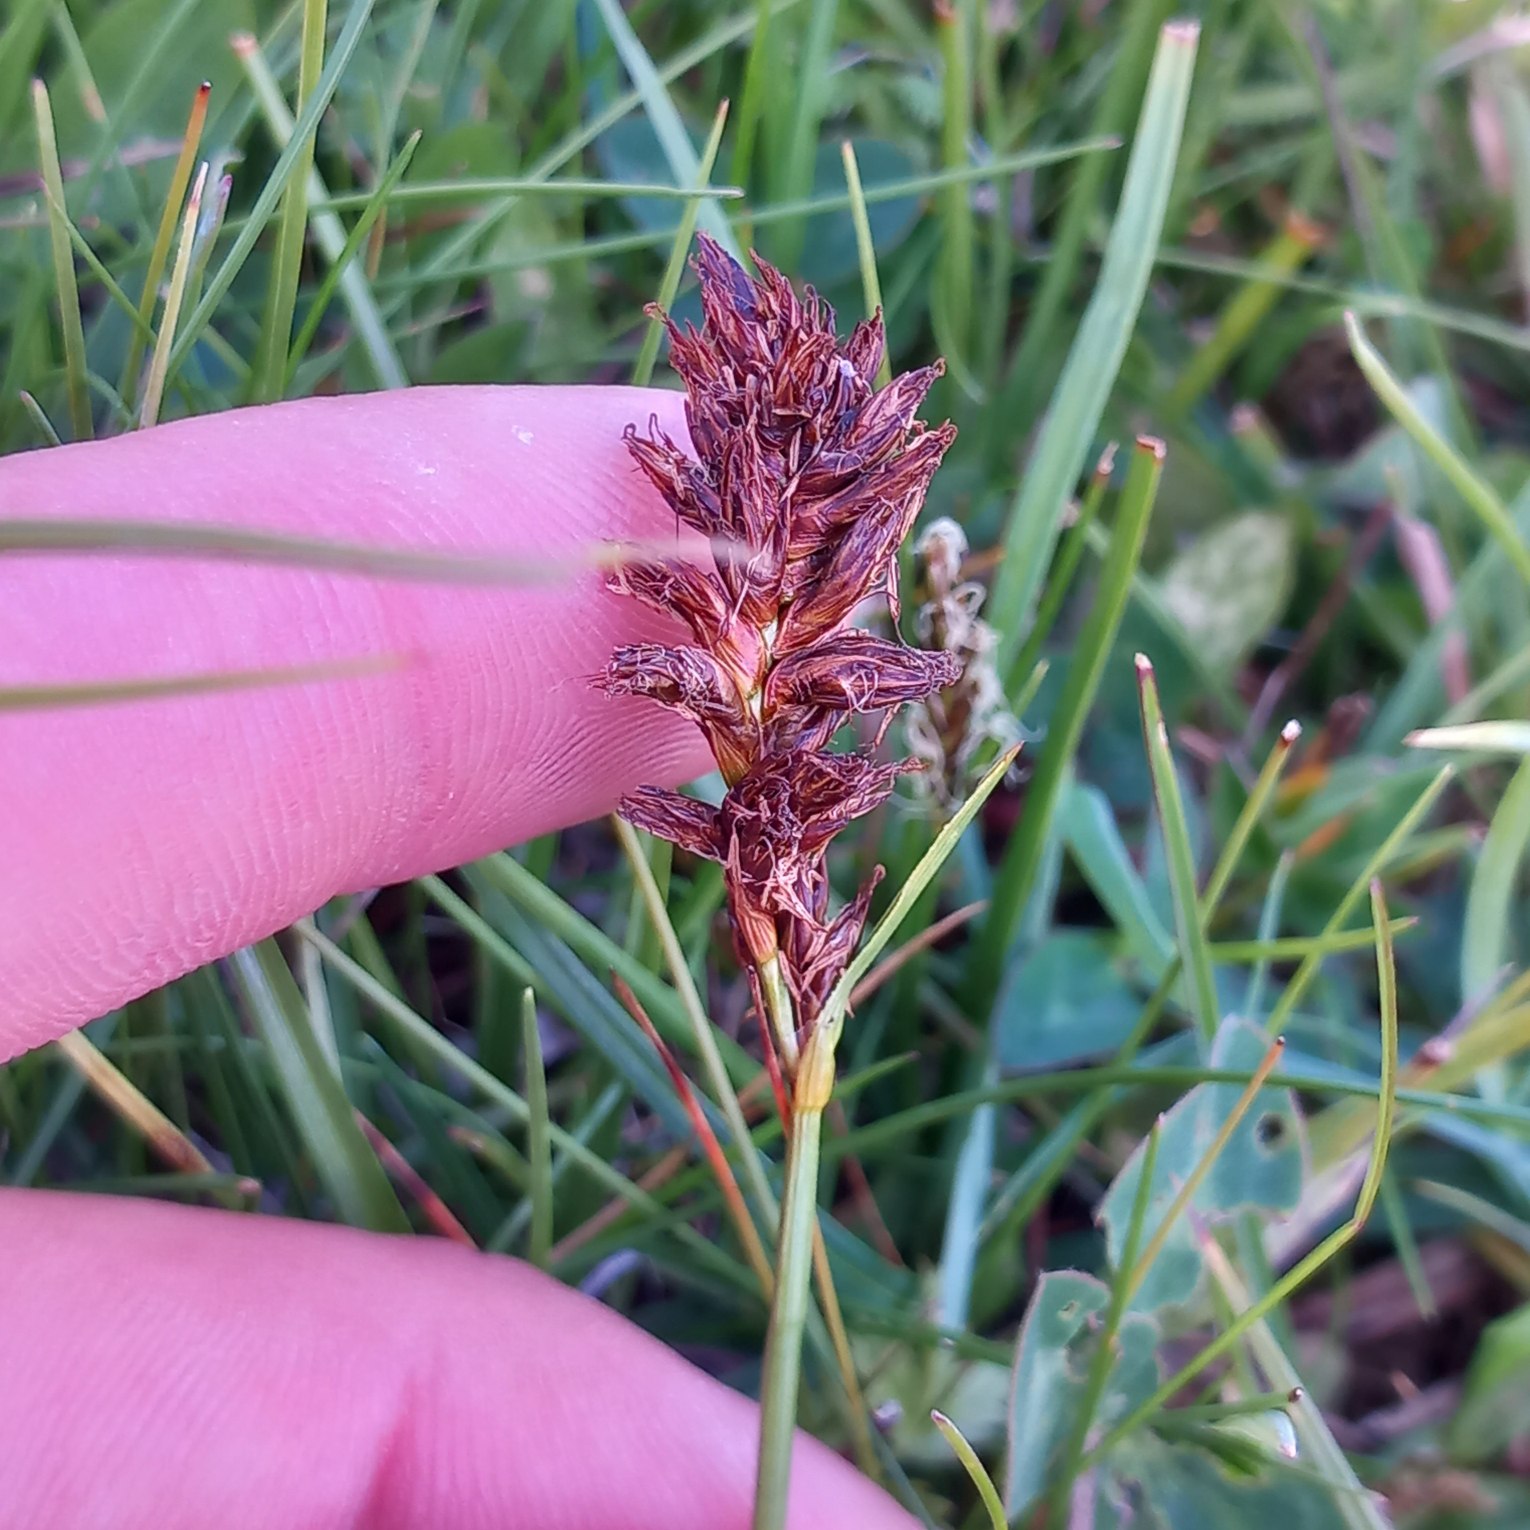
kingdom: Plantae
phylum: Tracheophyta
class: Liliopsida
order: Poales
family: Cyperaceae
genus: Blysmus
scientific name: Blysmus compressus
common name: Fladtrykt kogleaks
